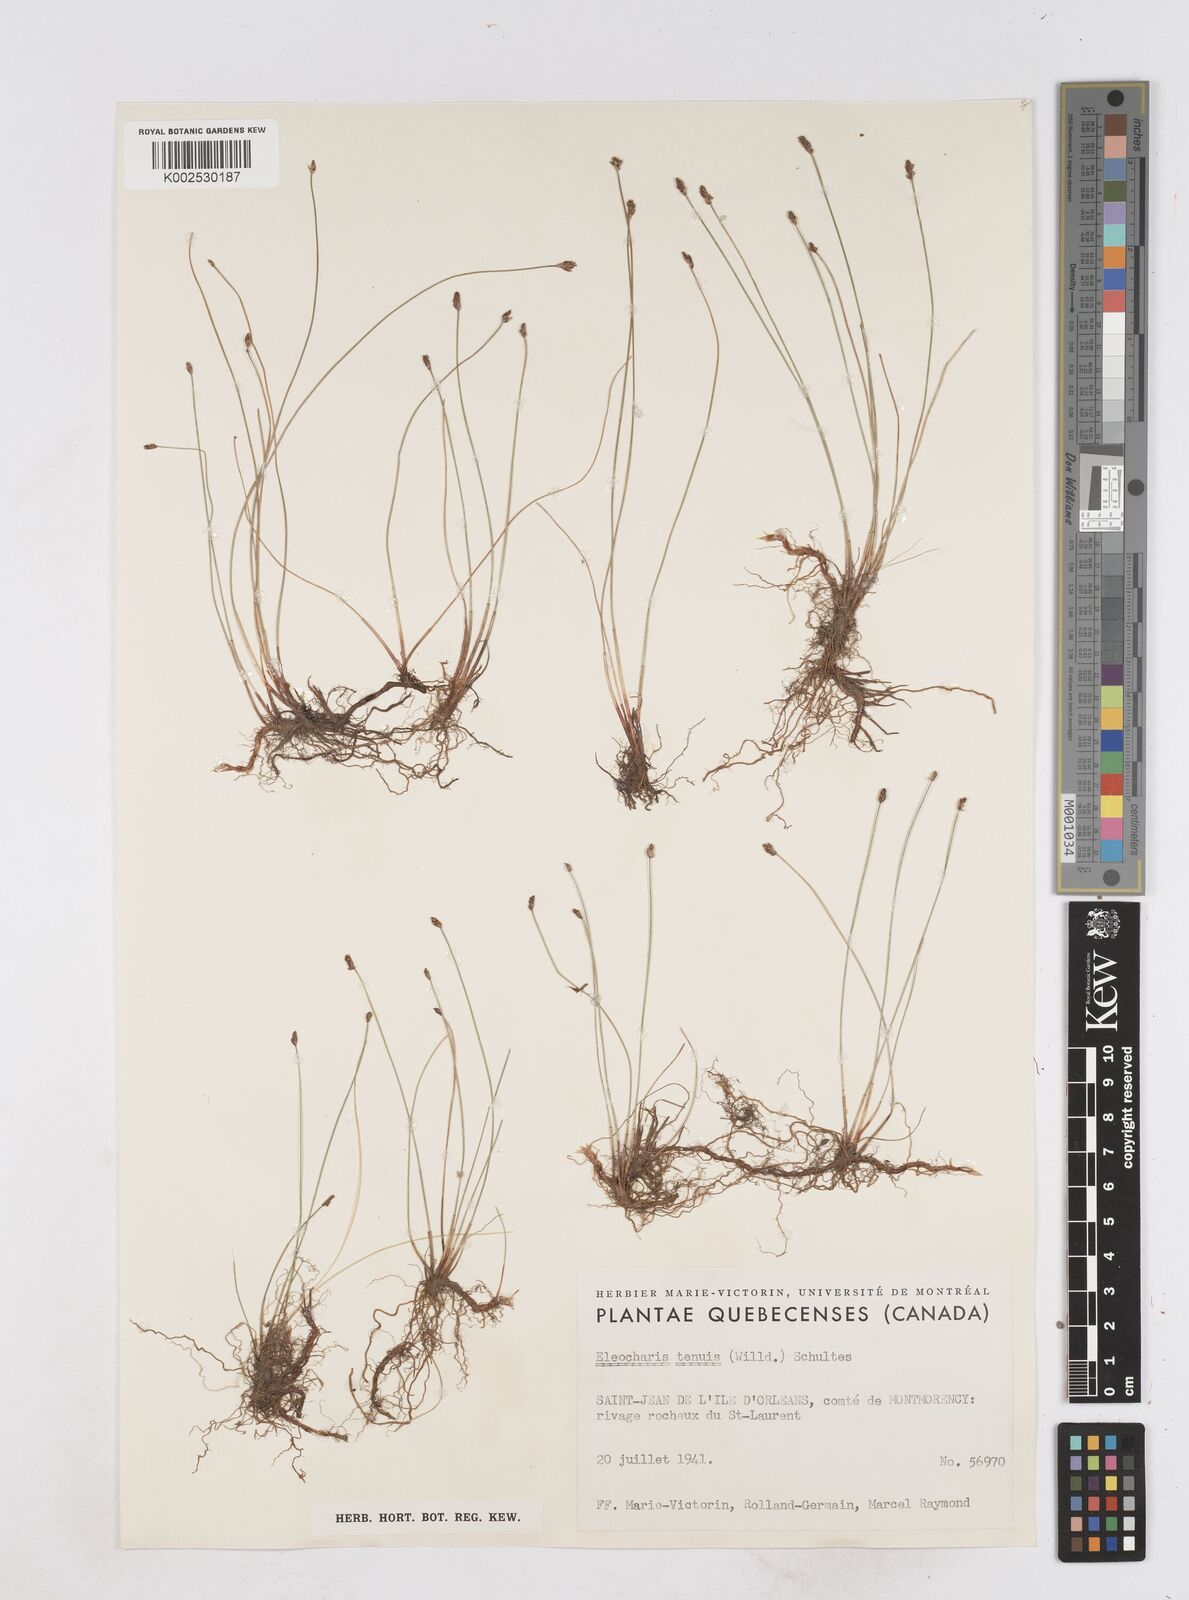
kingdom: Plantae
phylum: Tracheophyta
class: Liliopsida
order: Poales
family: Cyperaceae
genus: Eleocharis
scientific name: Eleocharis tenuis
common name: Dog's hair
